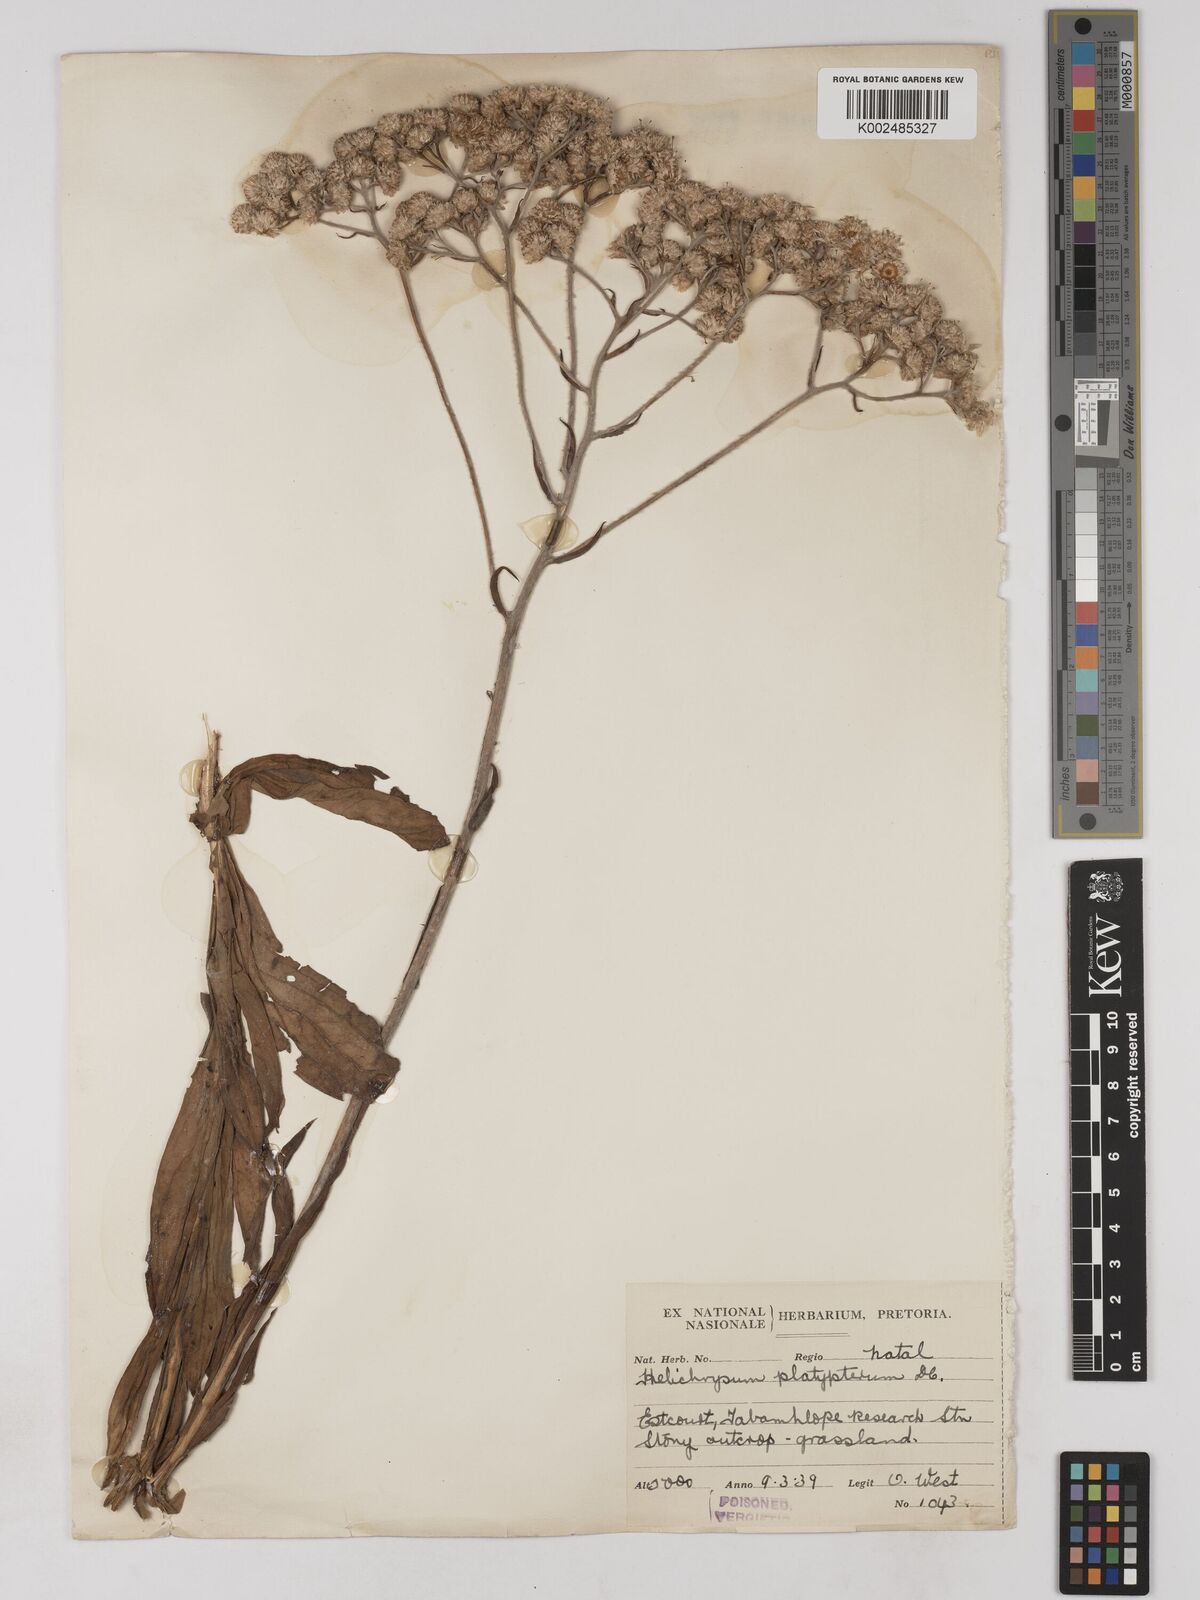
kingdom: Plantae
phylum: Tracheophyta
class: Magnoliopsida
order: Asterales
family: Asteraceae
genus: Helichrysum
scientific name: Helichrysum platypterum
